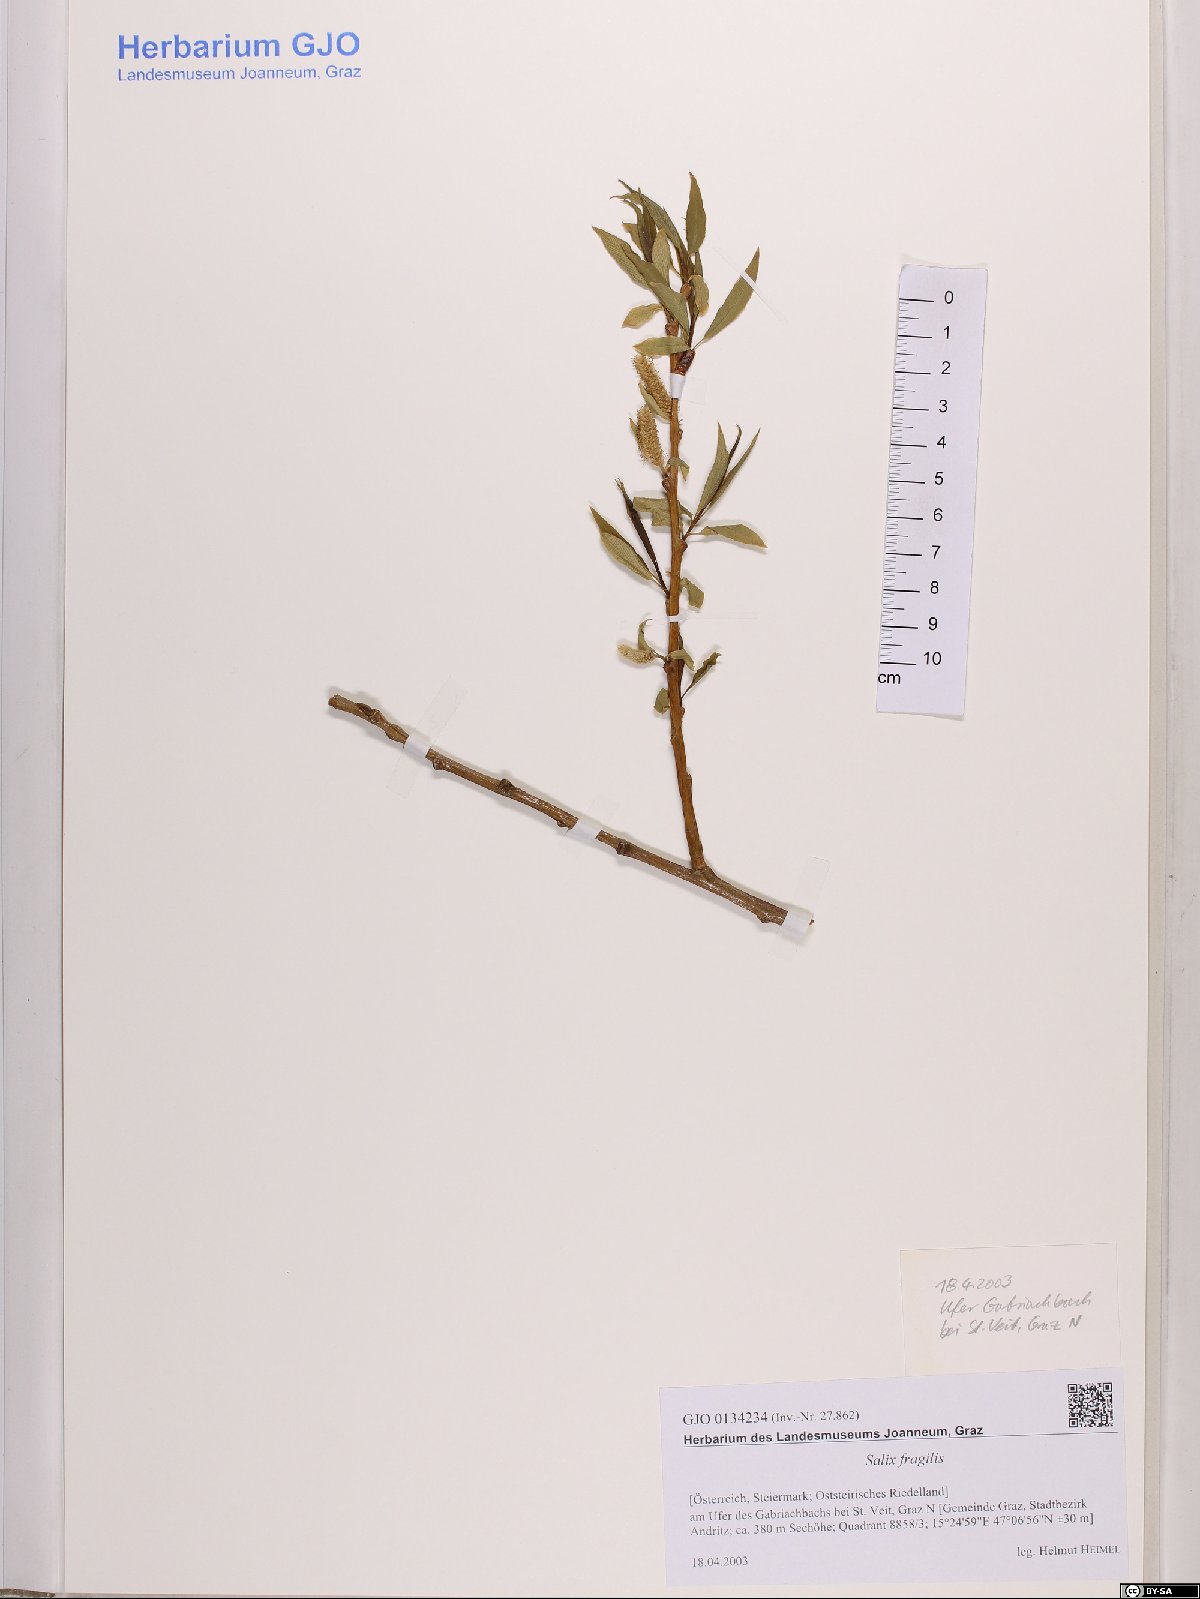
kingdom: Plantae
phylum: Tracheophyta
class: Magnoliopsida
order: Malpighiales
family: Salicaceae
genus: Salix
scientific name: Salix fragilis
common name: Crack willow
